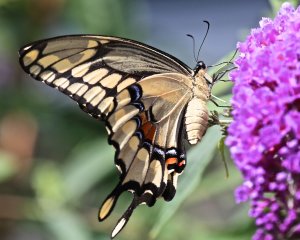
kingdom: Animalia
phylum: Arthropoda
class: Insecta
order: Lepidoptera
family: Papilionidae
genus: Papilio
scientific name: Papilio cresphontes
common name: Eastern Giant Swallowtail
